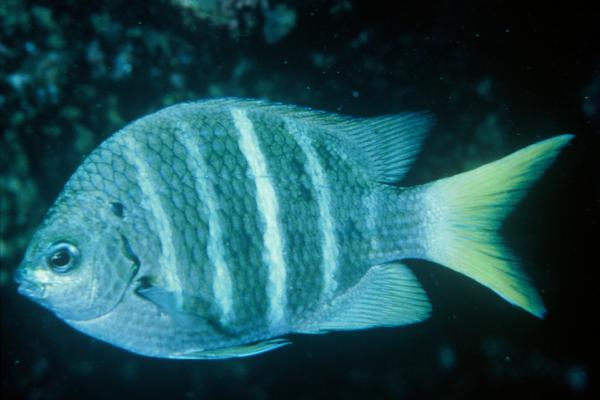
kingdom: Animalia
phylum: Chordata
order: Perciformes
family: Pomacentridae
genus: Abudefduf
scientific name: Abudefduf notatus
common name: Yellow-tail sergeant
